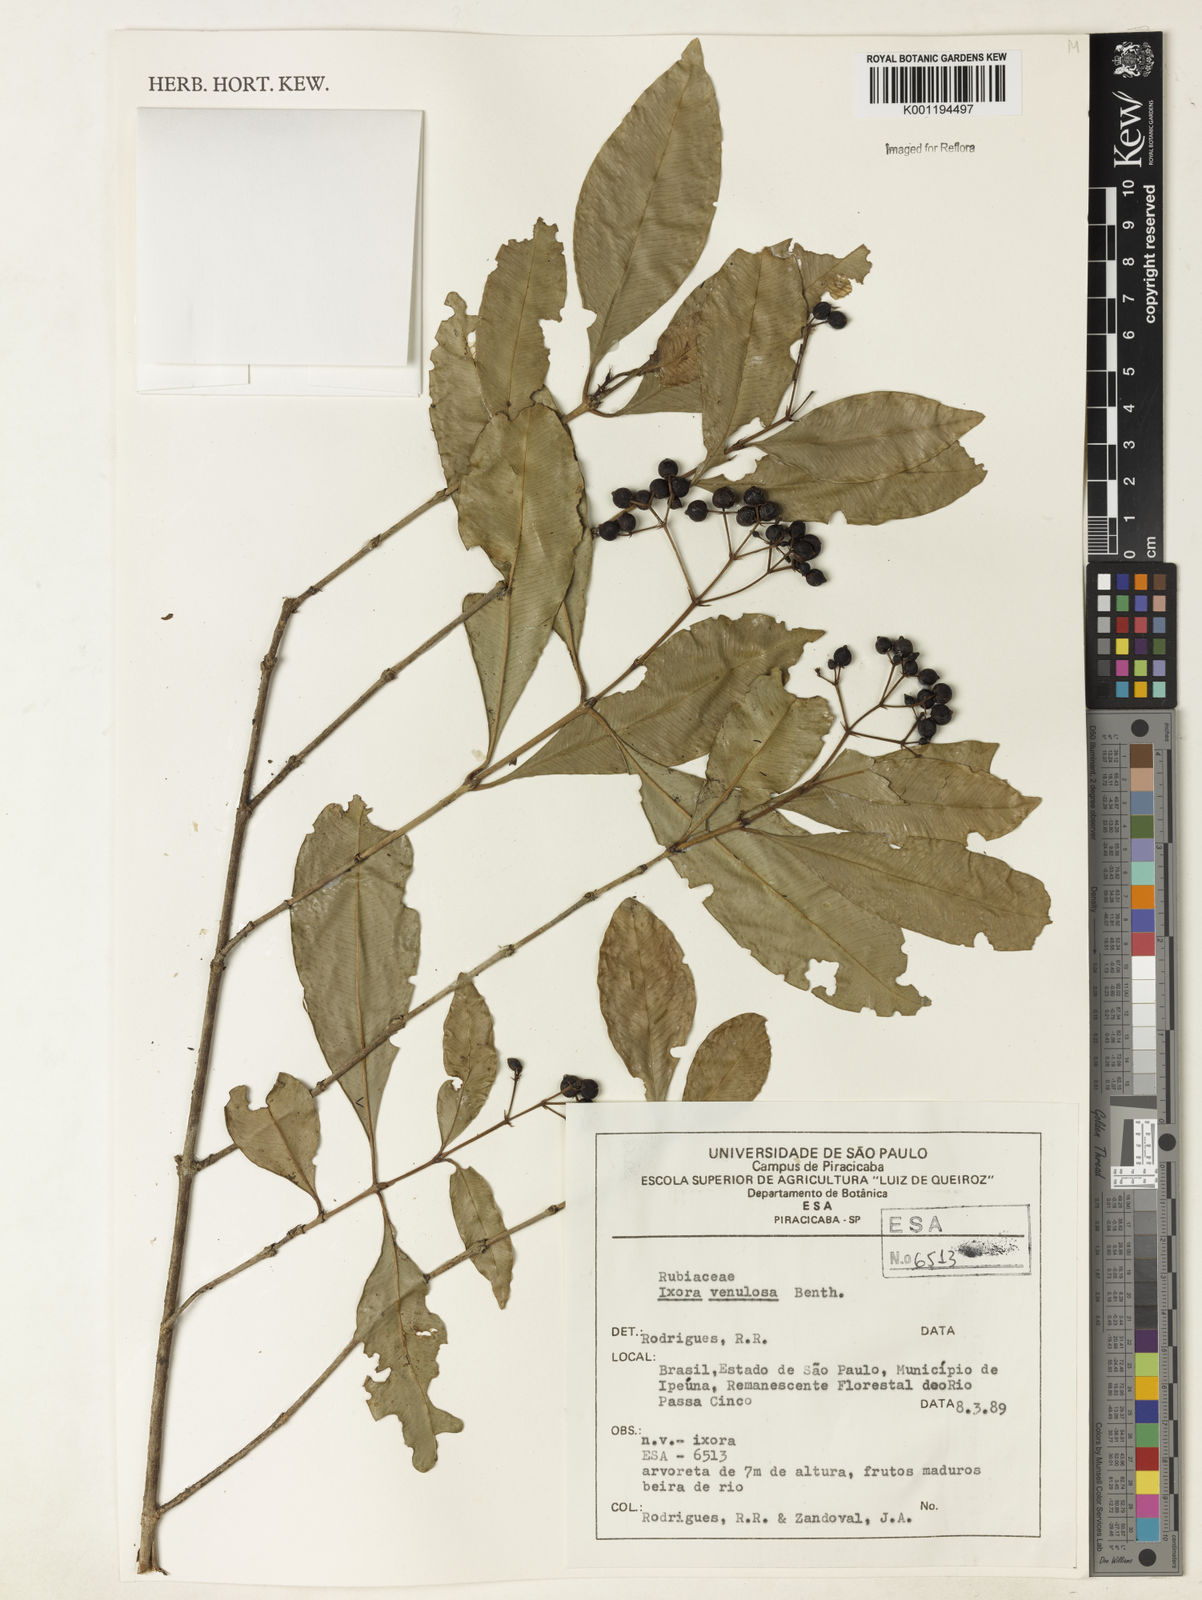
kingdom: Plantae
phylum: Tracheophyta
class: Magnoliopsida
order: Gentianales
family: Rubiaceae
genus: Ixora
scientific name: Ixora venulosa
